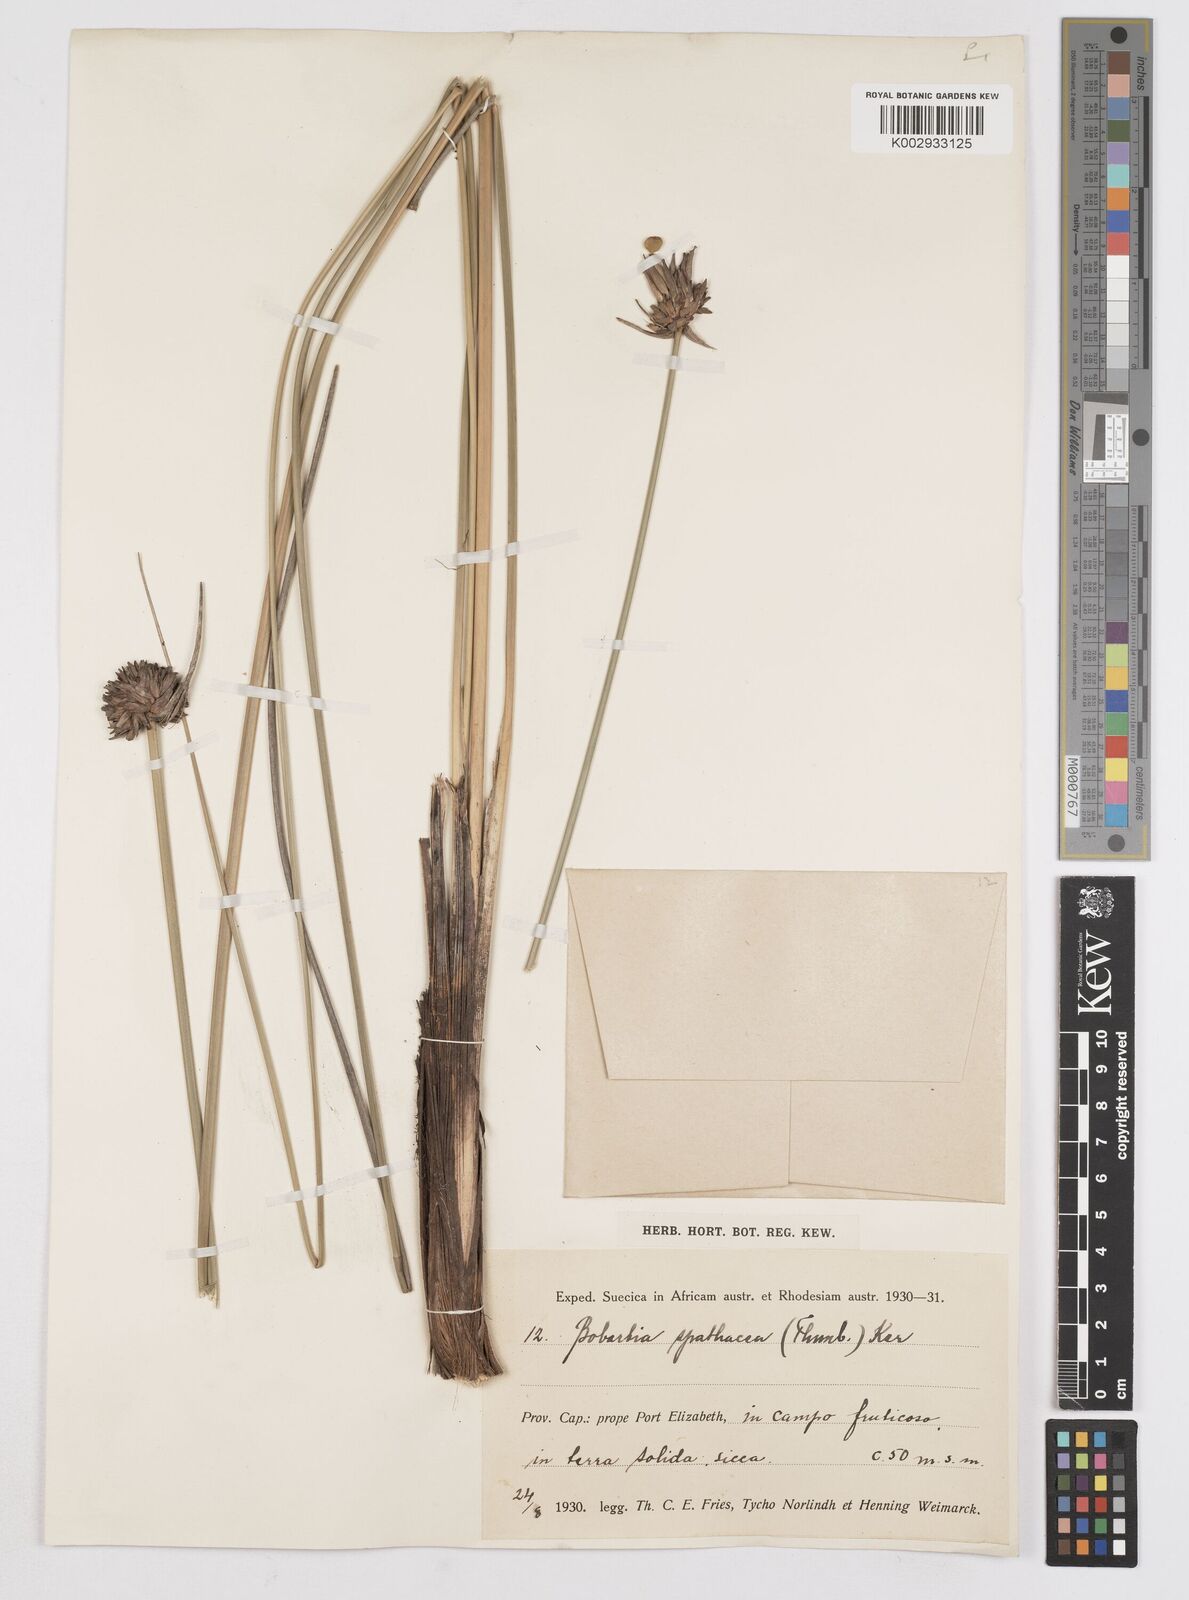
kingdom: Plantae
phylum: Tracheophyta
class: Liliopsida
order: Asparagales
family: Iridaceae
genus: Bobartia
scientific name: Bobartia indica
